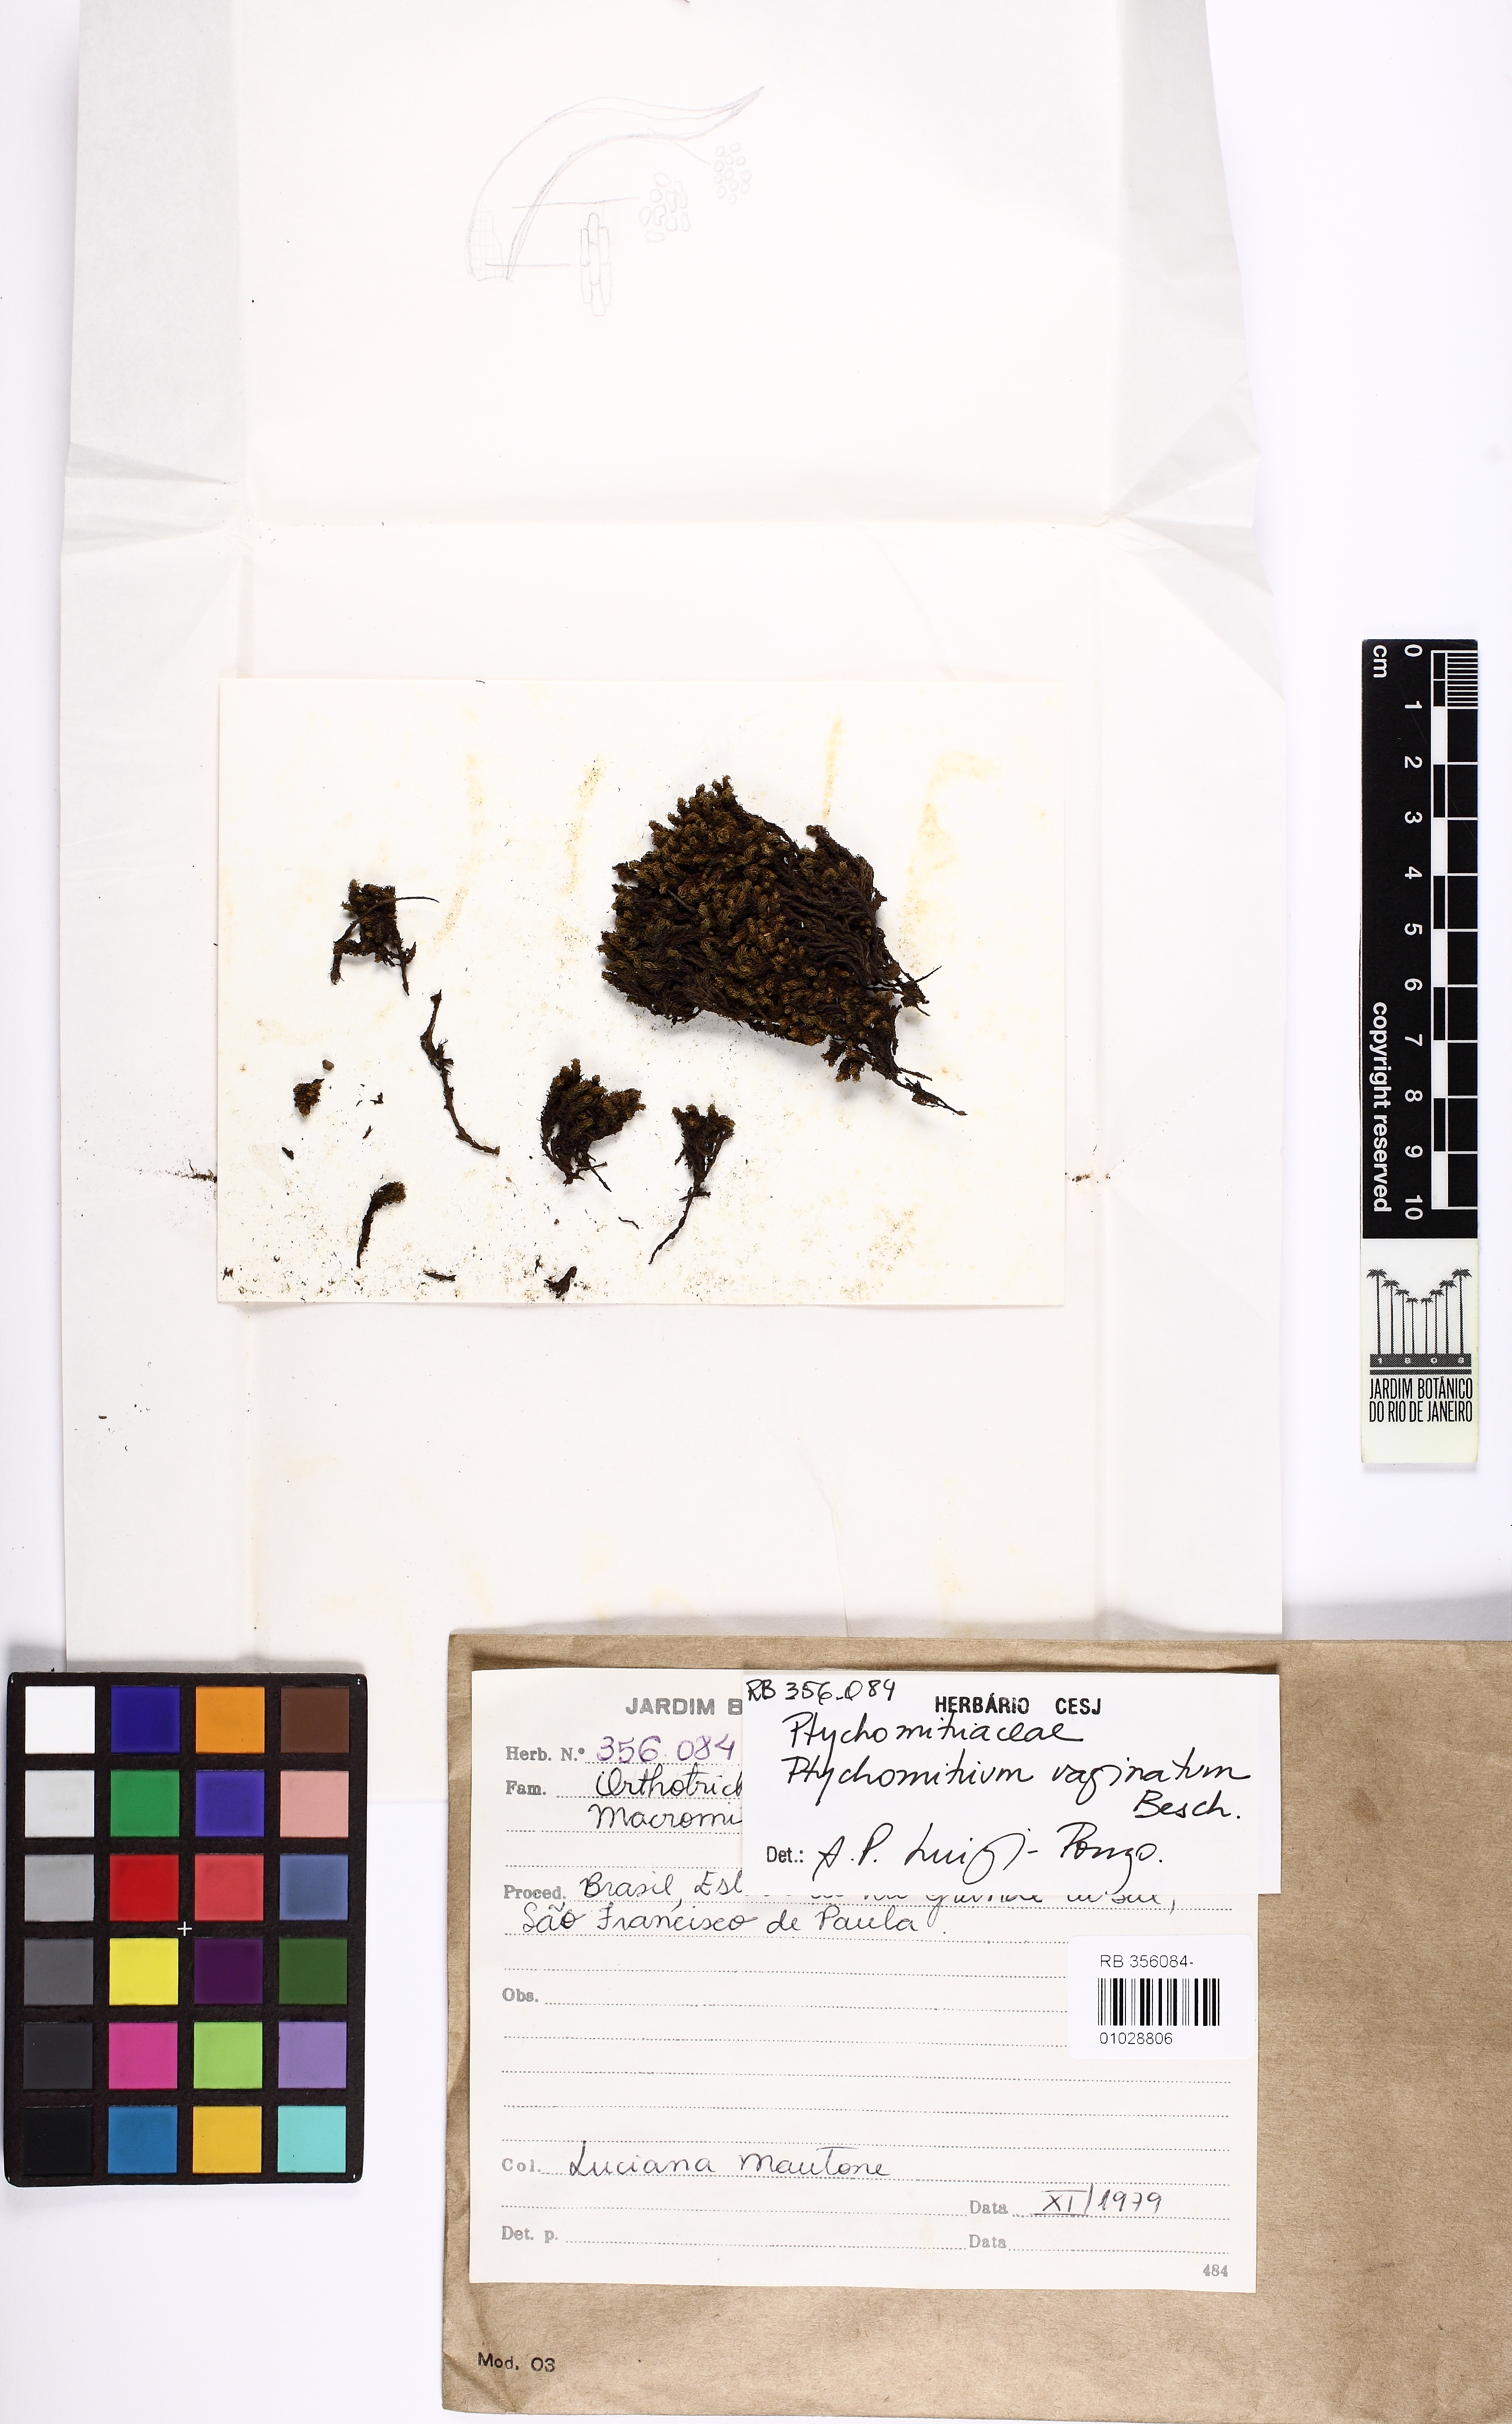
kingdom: Plantae
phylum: Bryophyta
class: Bryopsida
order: Grimmiales
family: Ptychomitriaceae
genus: Ptychomitrium
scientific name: Ptychomitrium vaginatum
